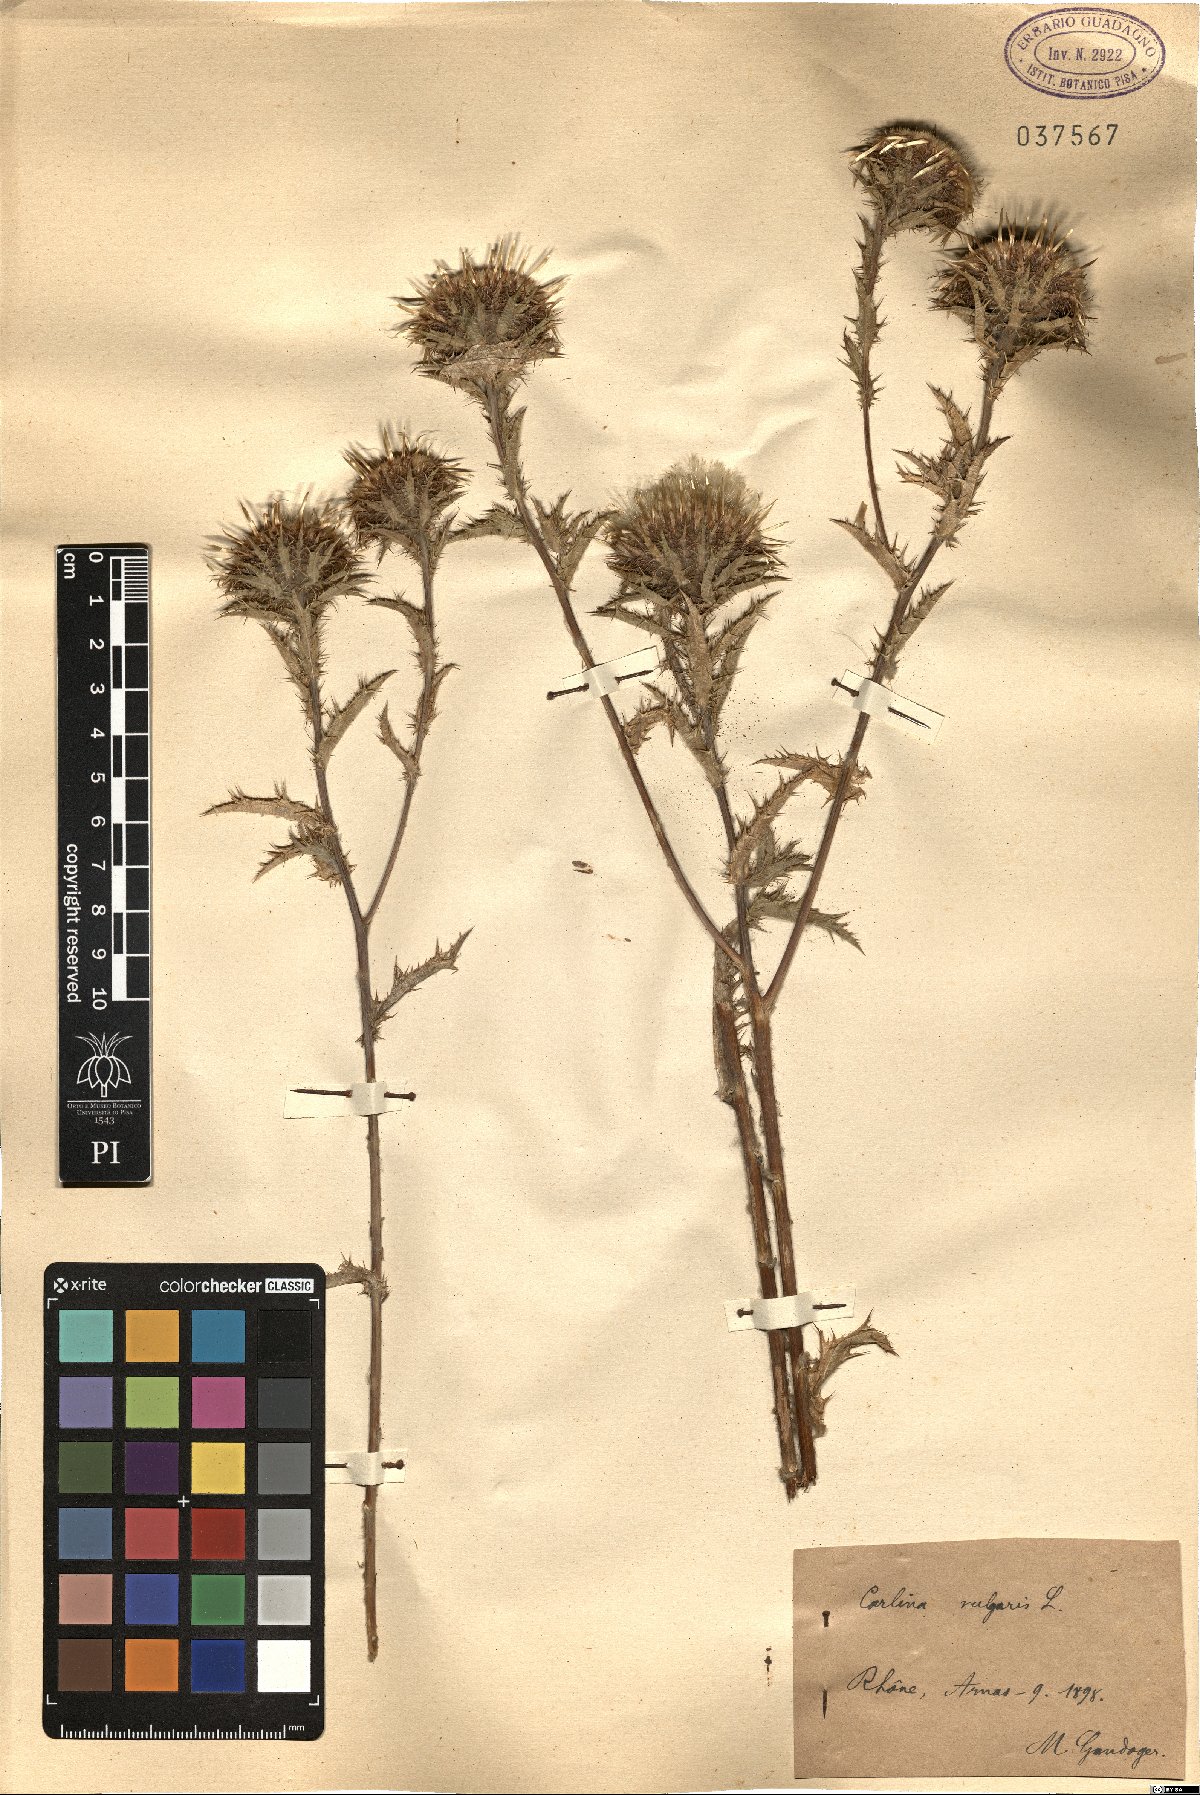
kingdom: Plantae
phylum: Tracheophyta
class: Magnoliopsida
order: Asterales
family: Asteraceae
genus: Carlina
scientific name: Carlina vulgaris
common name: Carline thistle
